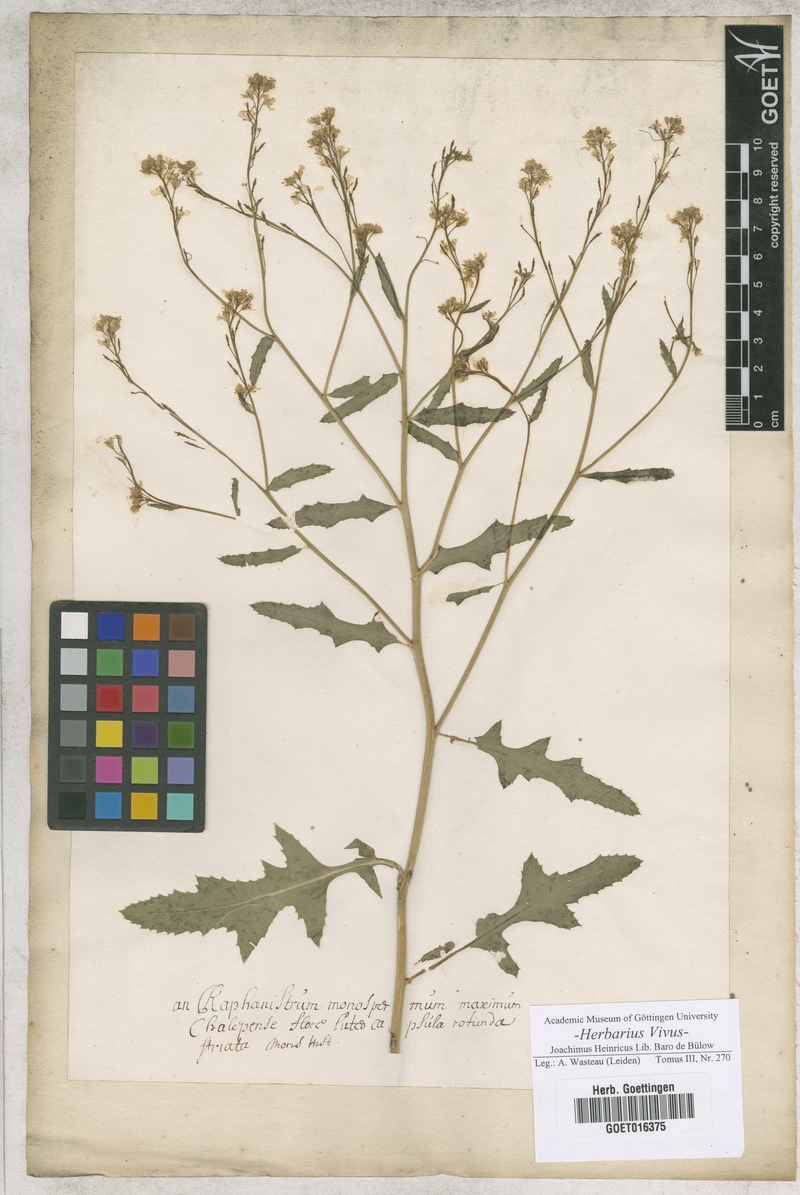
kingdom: Plantae
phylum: Tracheophyta
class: Magnoliopsida
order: Brassicales
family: Brassicaceae
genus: Raphanistrum
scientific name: Raphanistrum
